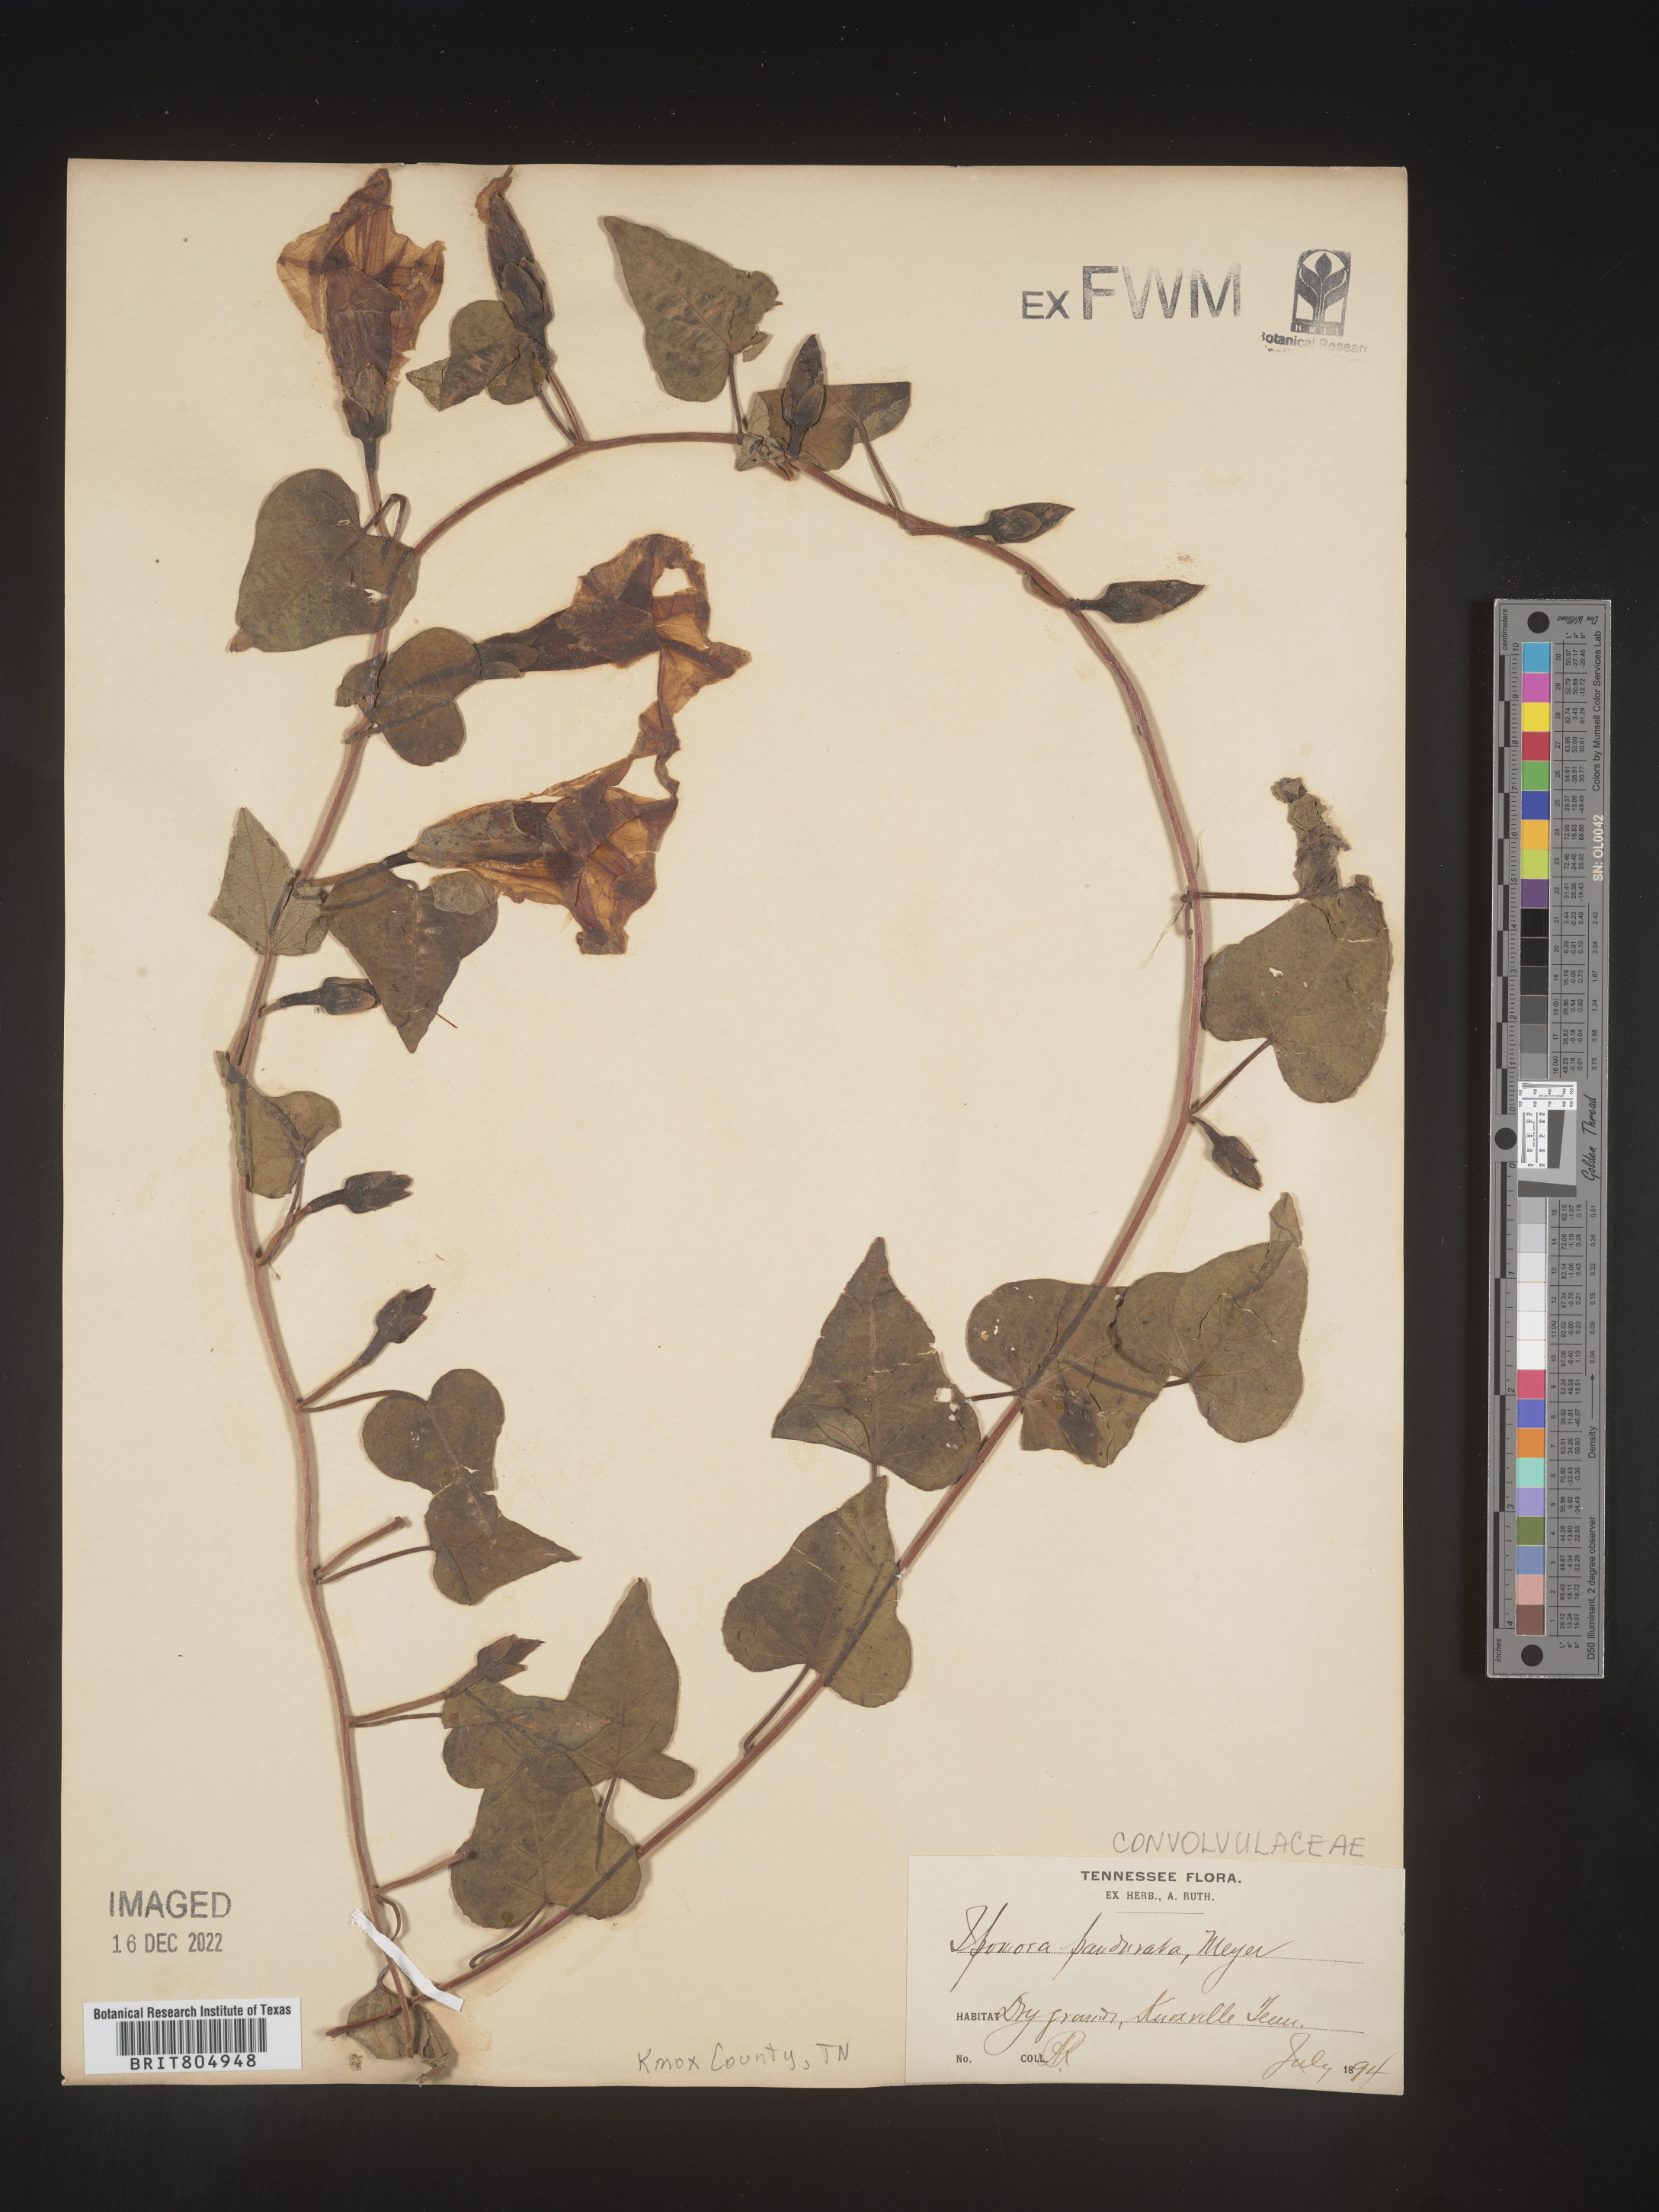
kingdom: Plantae
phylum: Tracheophyta
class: Magnoliopsida
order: Solanales
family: Convolvulaceae
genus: Ipomoea
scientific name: Ipomoea pandurata
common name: Man-of-the-earth
